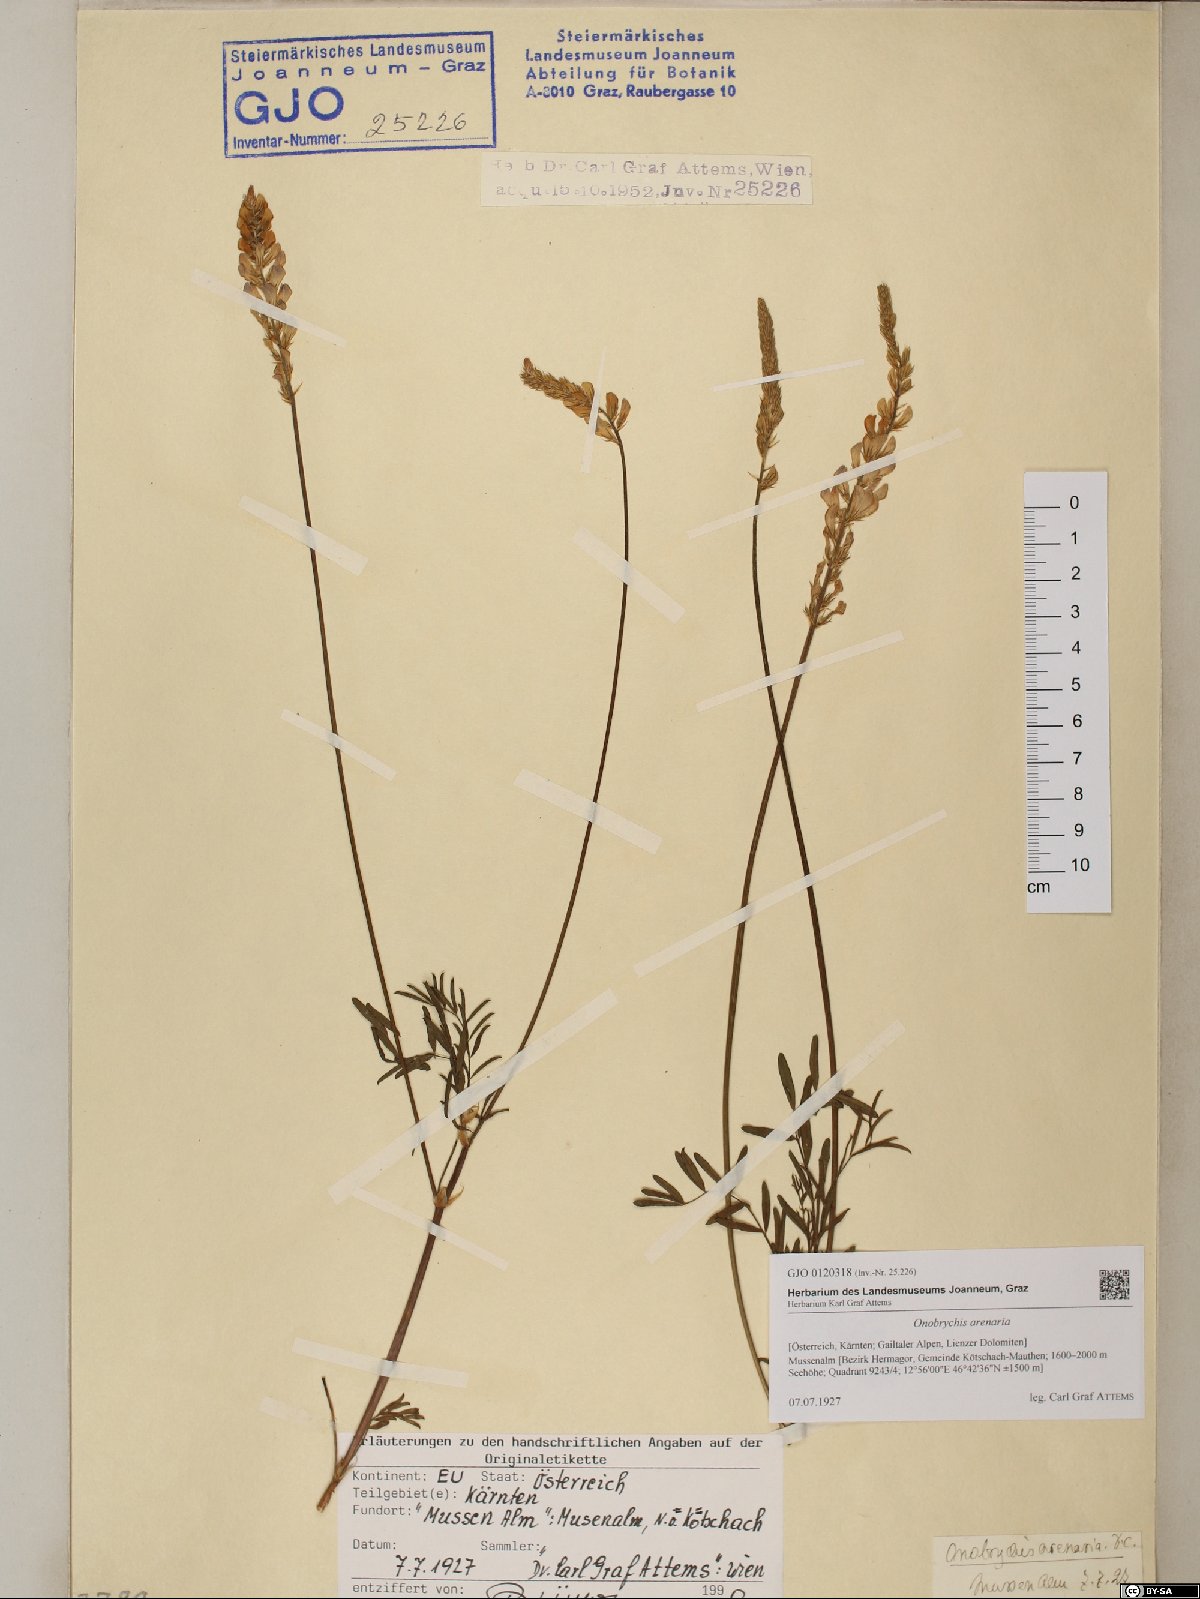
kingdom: Plantae
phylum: Tracheophyta
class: Magnoliopsida
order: Fabales
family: Fabaceae
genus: Onobrychis
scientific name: Onobrychis arenaria
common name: Sand esparcet
